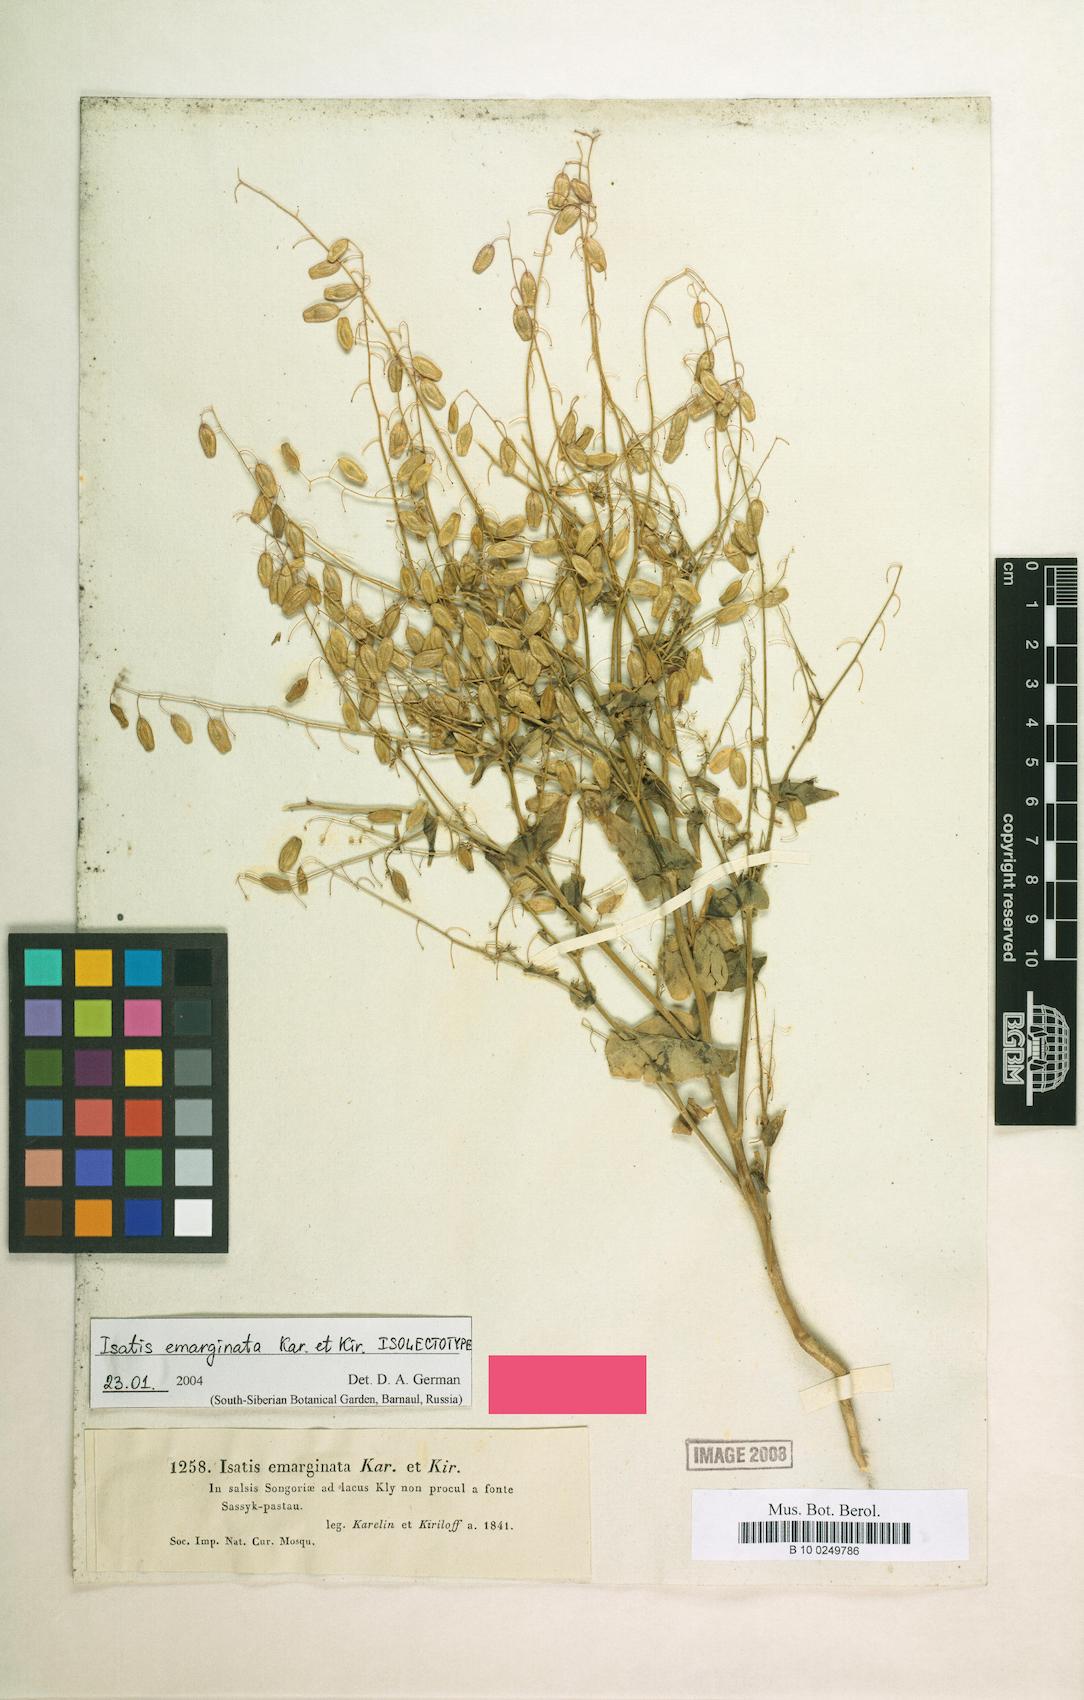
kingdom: Plantae
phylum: Tracheophyta
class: Magnoliopsida
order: Brassicales
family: Brassicaceae
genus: Isatis
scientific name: Isatis emarginata
